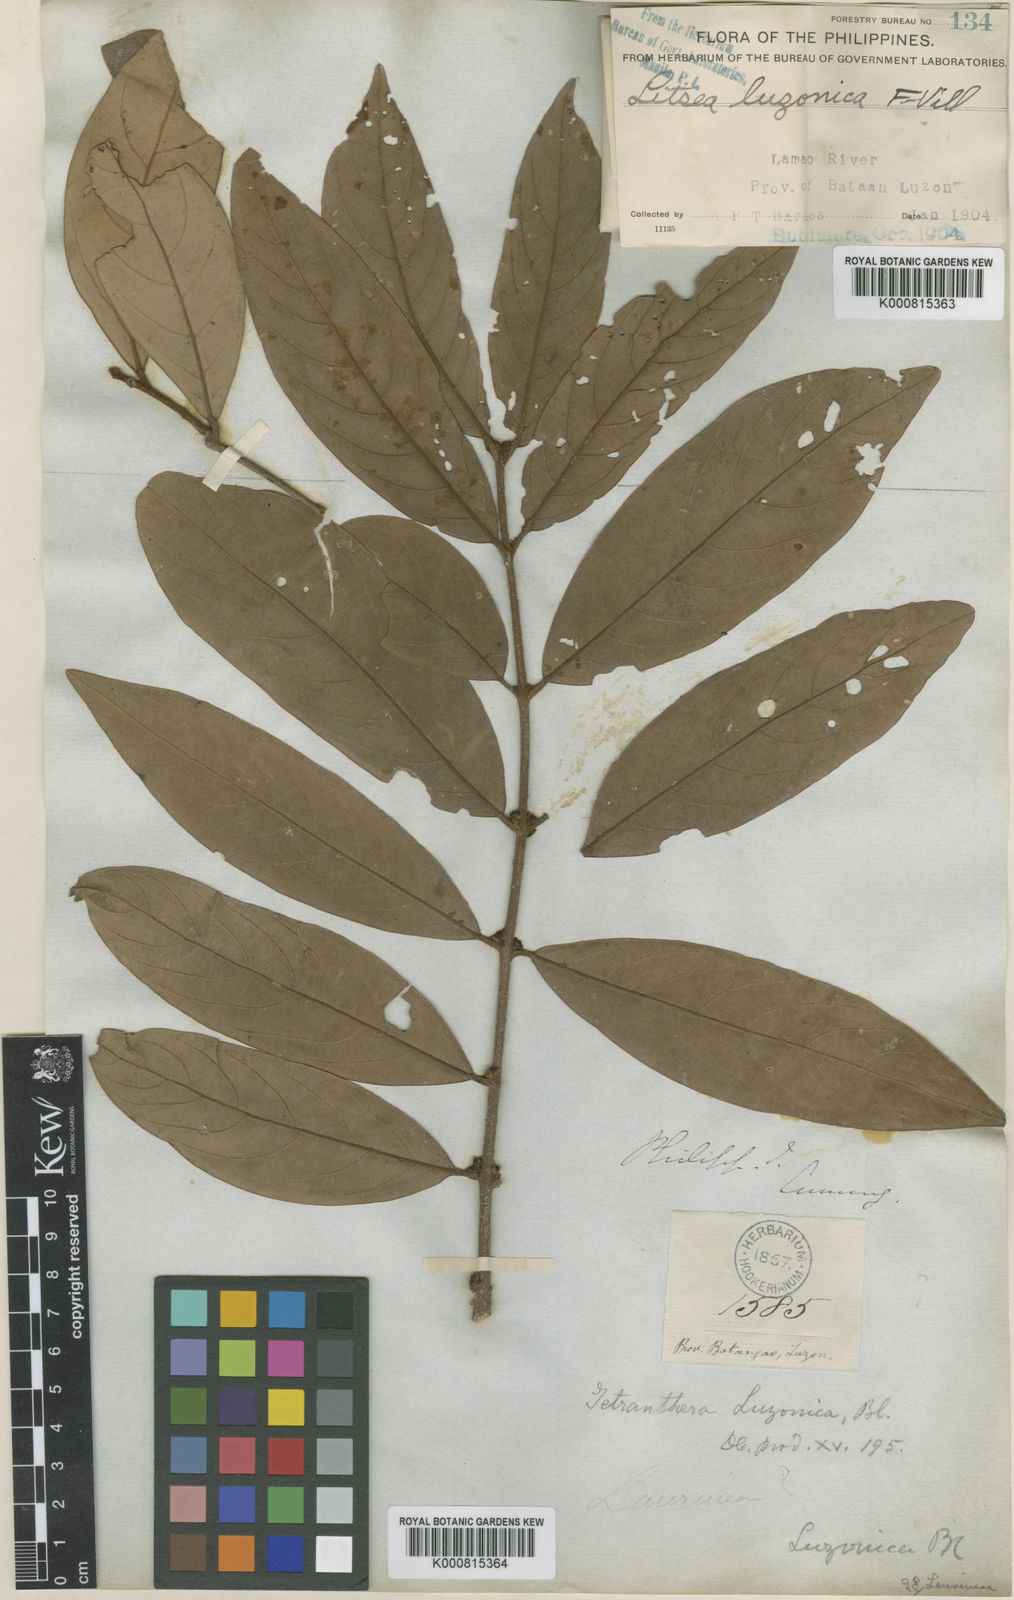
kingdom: Plantae
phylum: Tracheophyta
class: Magnoliopsida
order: Laurales
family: Lauraceae
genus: Litsea
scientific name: Litsea luzonica
